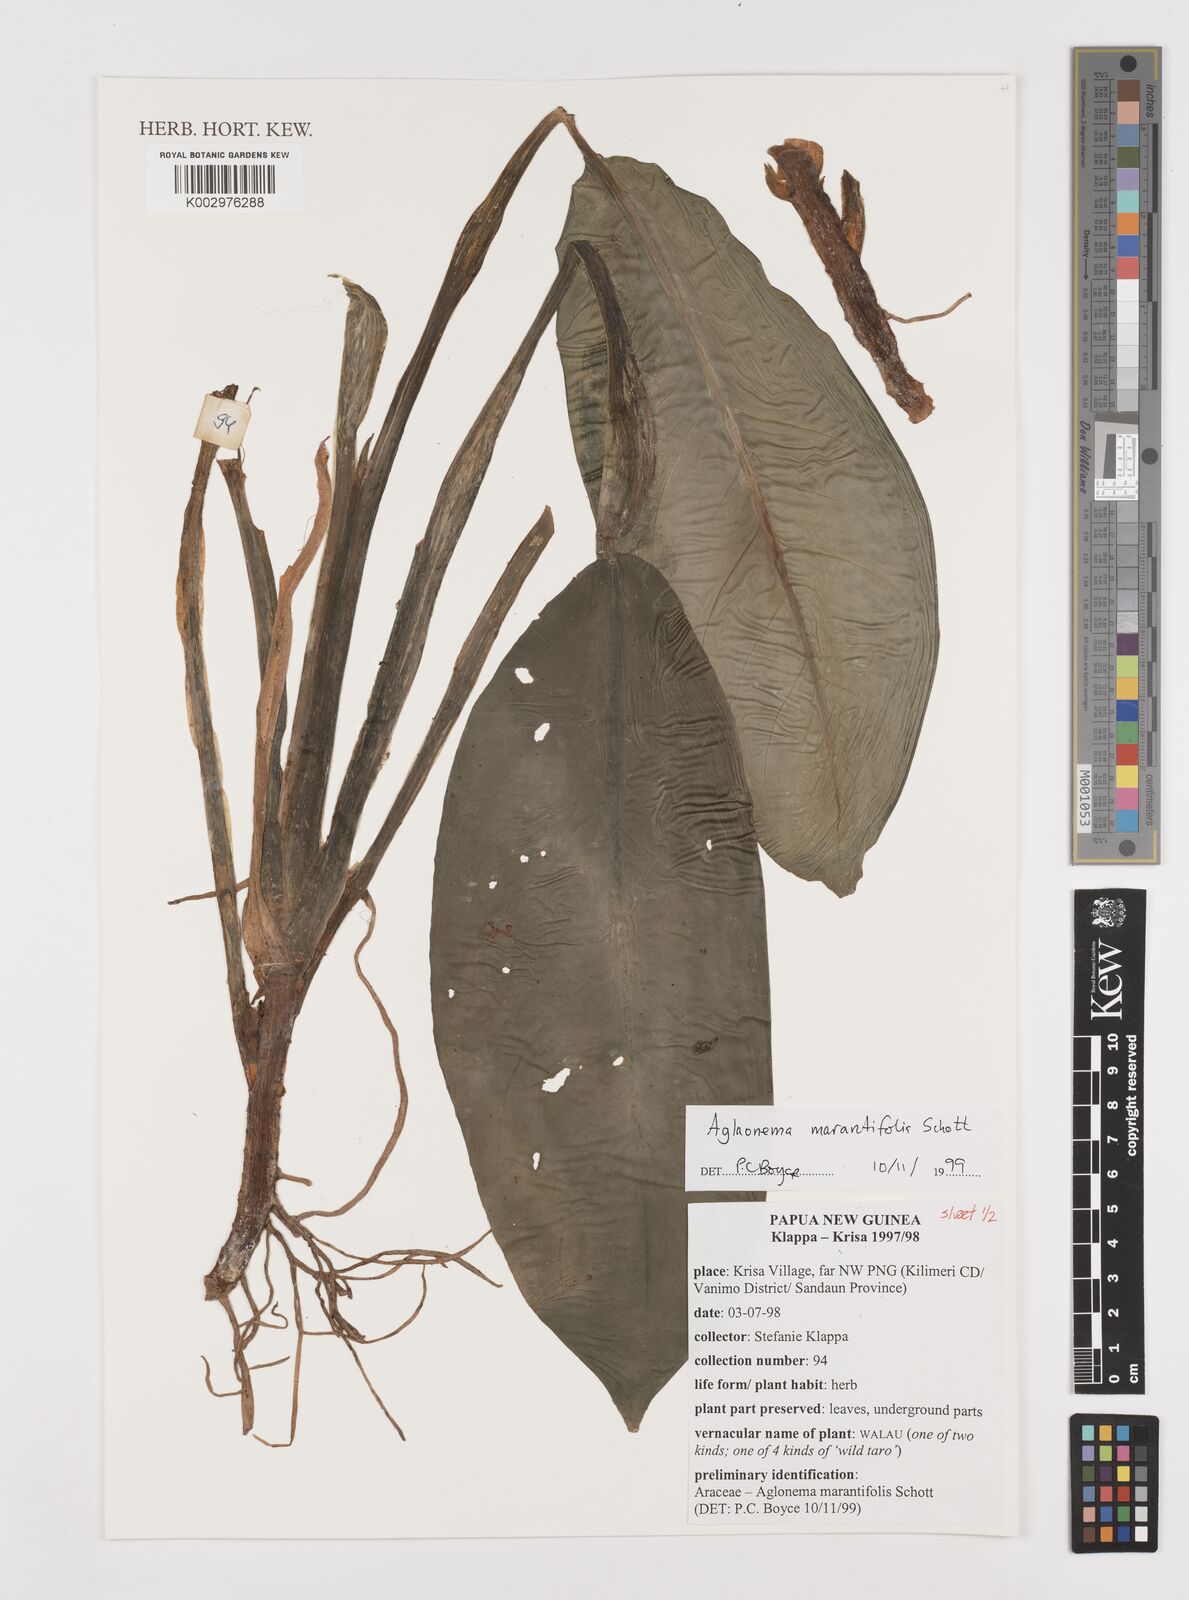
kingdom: Plantae
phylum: Tracheophyta
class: Liliopsida
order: Alismatales
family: Araceae
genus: Aglaonema
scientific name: Aglaonema marantifolium
